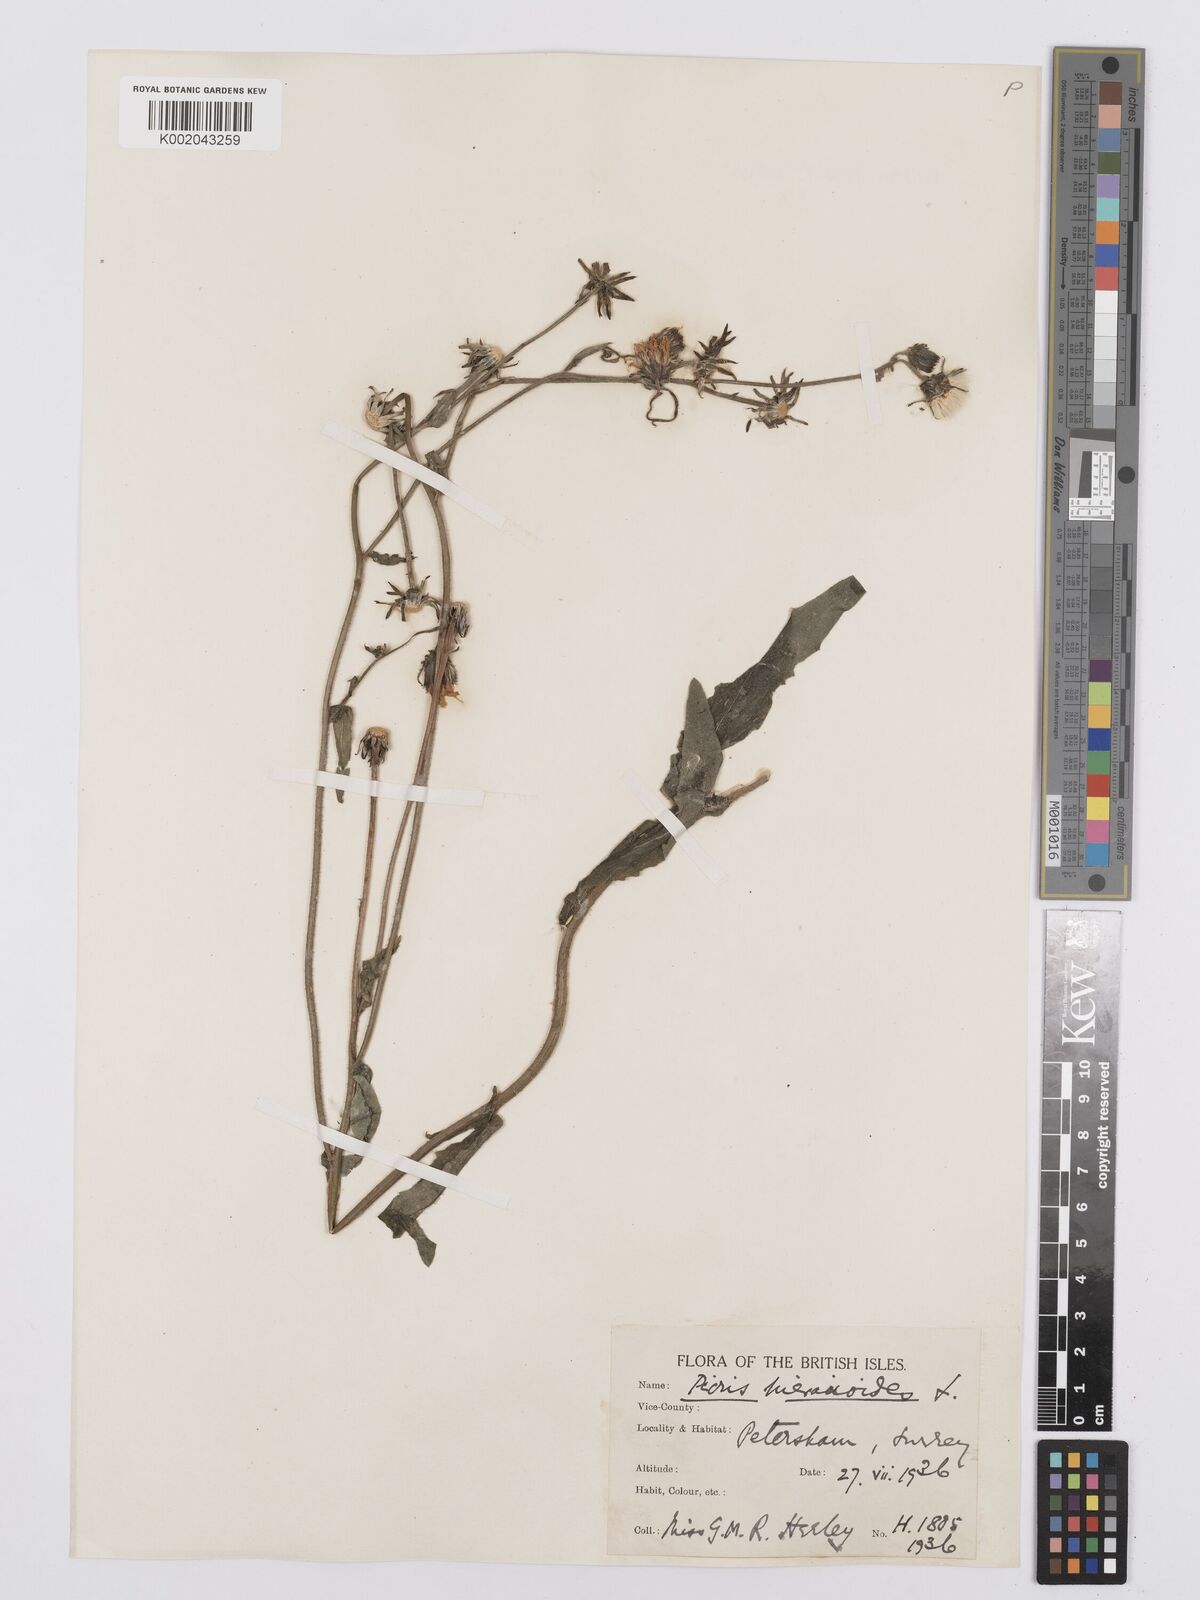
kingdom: Plantae
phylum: Tracheophyta
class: Magnoliopsida
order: Asterales
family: Asteraceae
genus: Picris
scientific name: Picris hieracioides
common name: Hawkweed oxtongue
